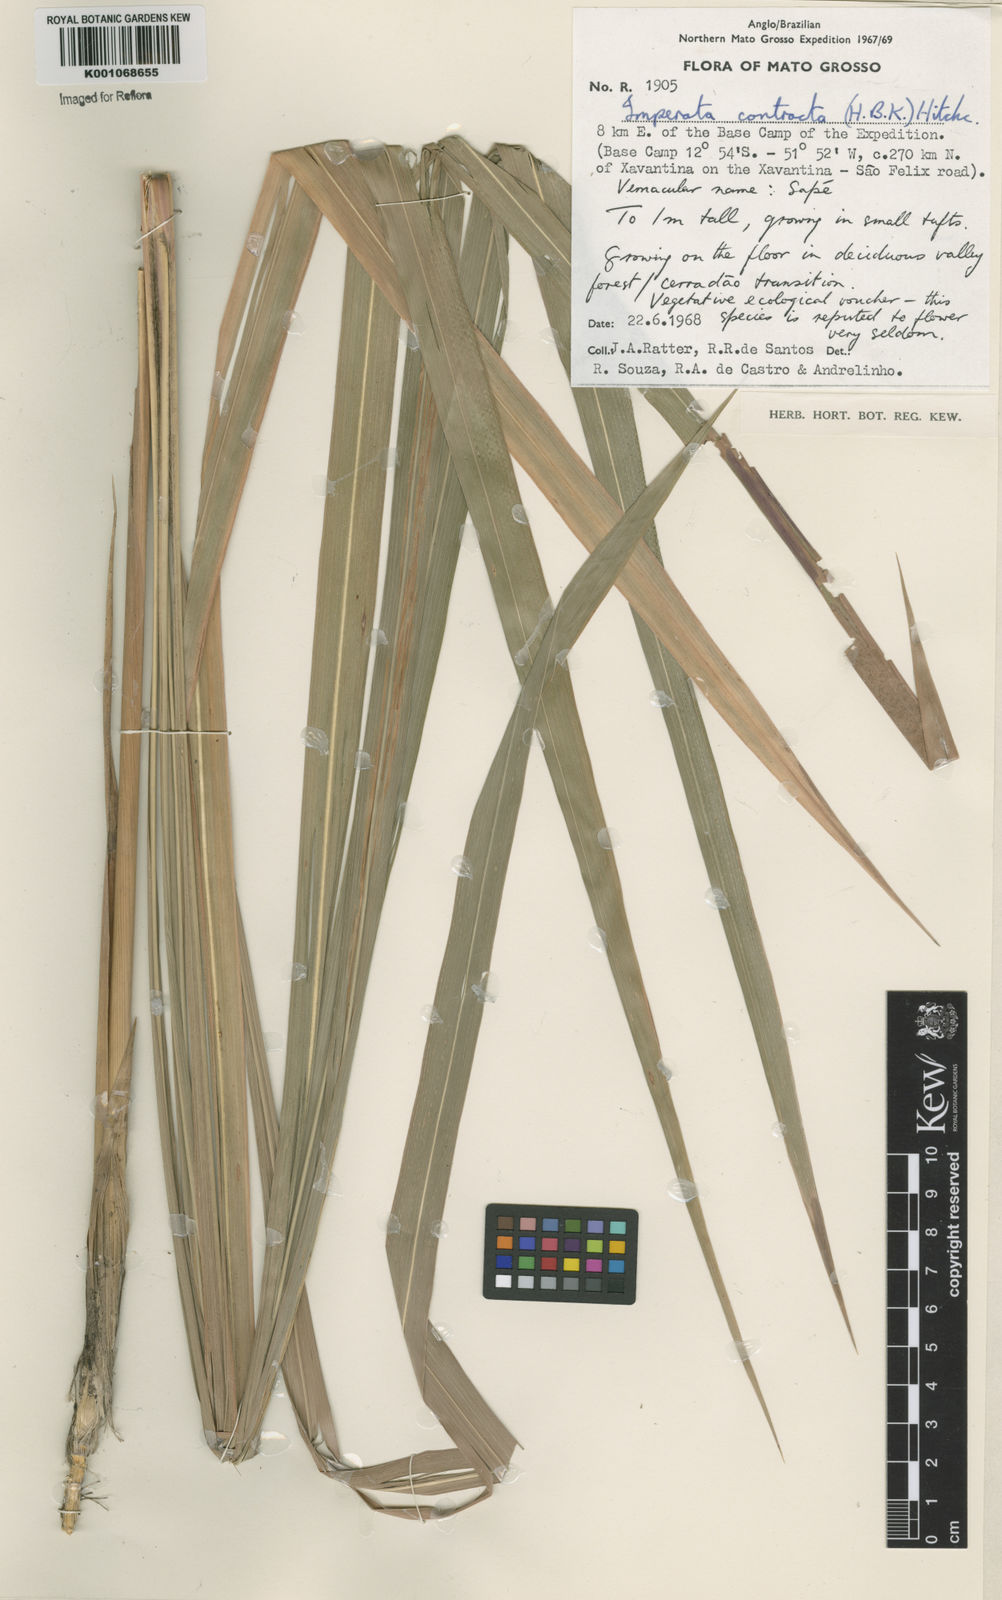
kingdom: Plantae
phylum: Tracheophyta
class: Liliopsida
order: Poales
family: Poaceae
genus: Imperata
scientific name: Imperata contracta
